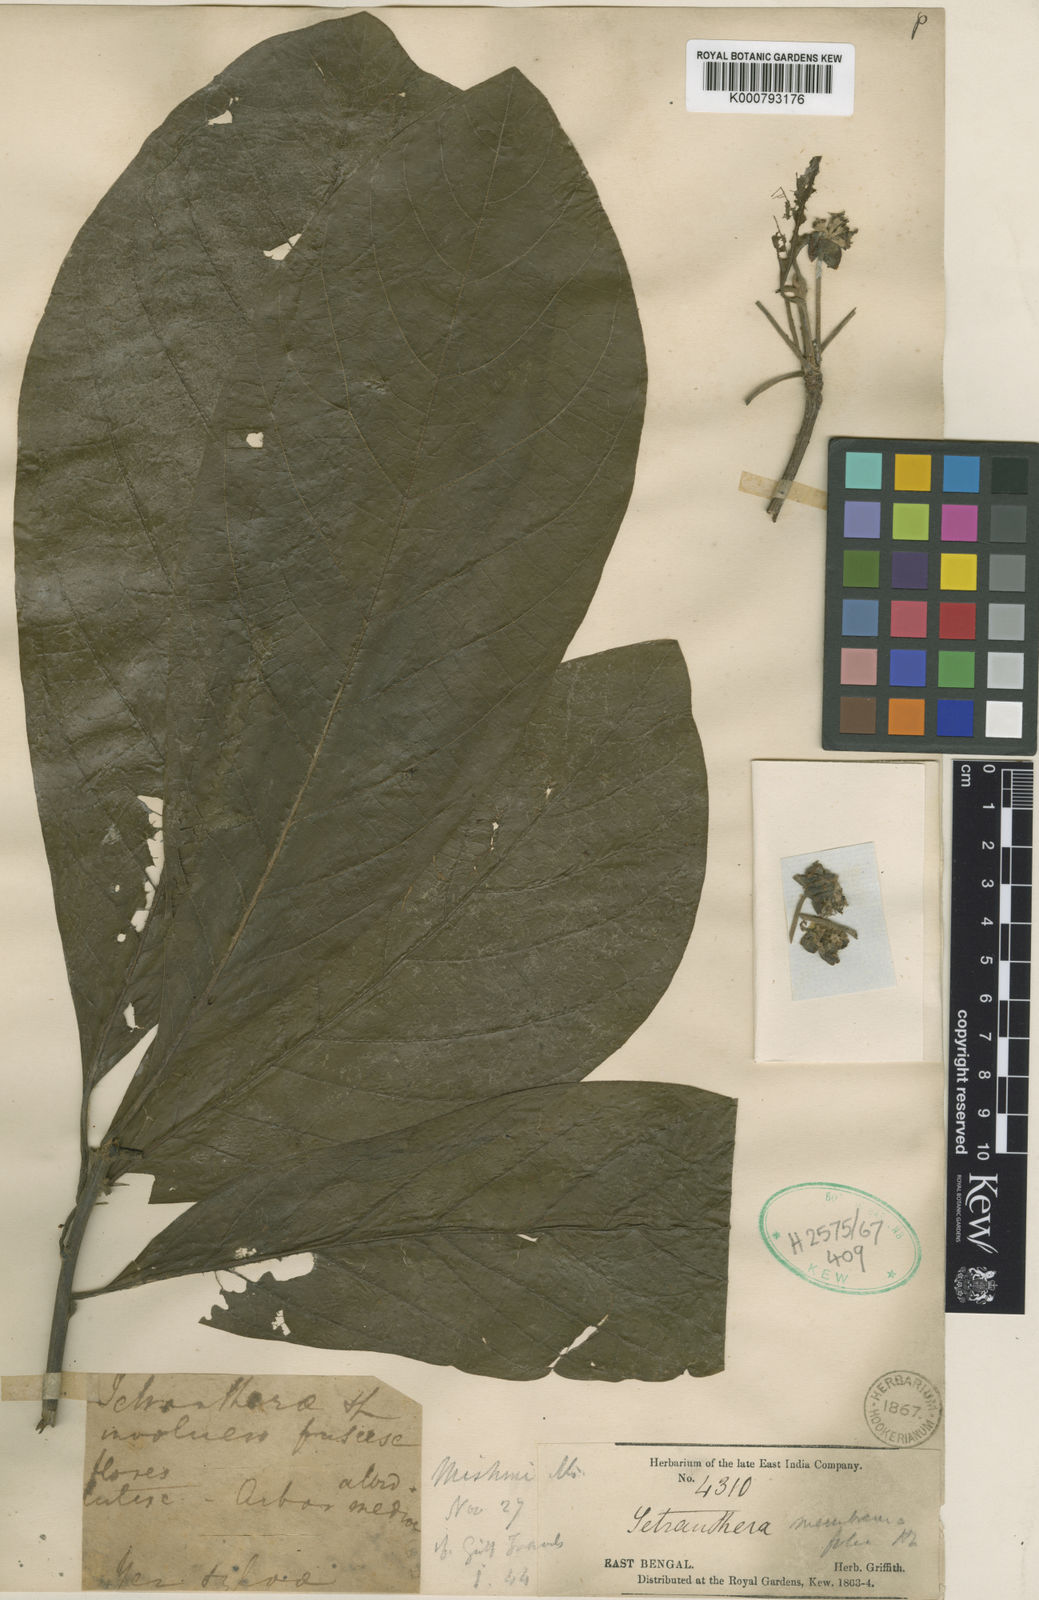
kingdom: Plantae
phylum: Tracheophyta
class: Magnoliopsida
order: Laurales
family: Lauraceae
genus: Litsea
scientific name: Litsea membranifolia
